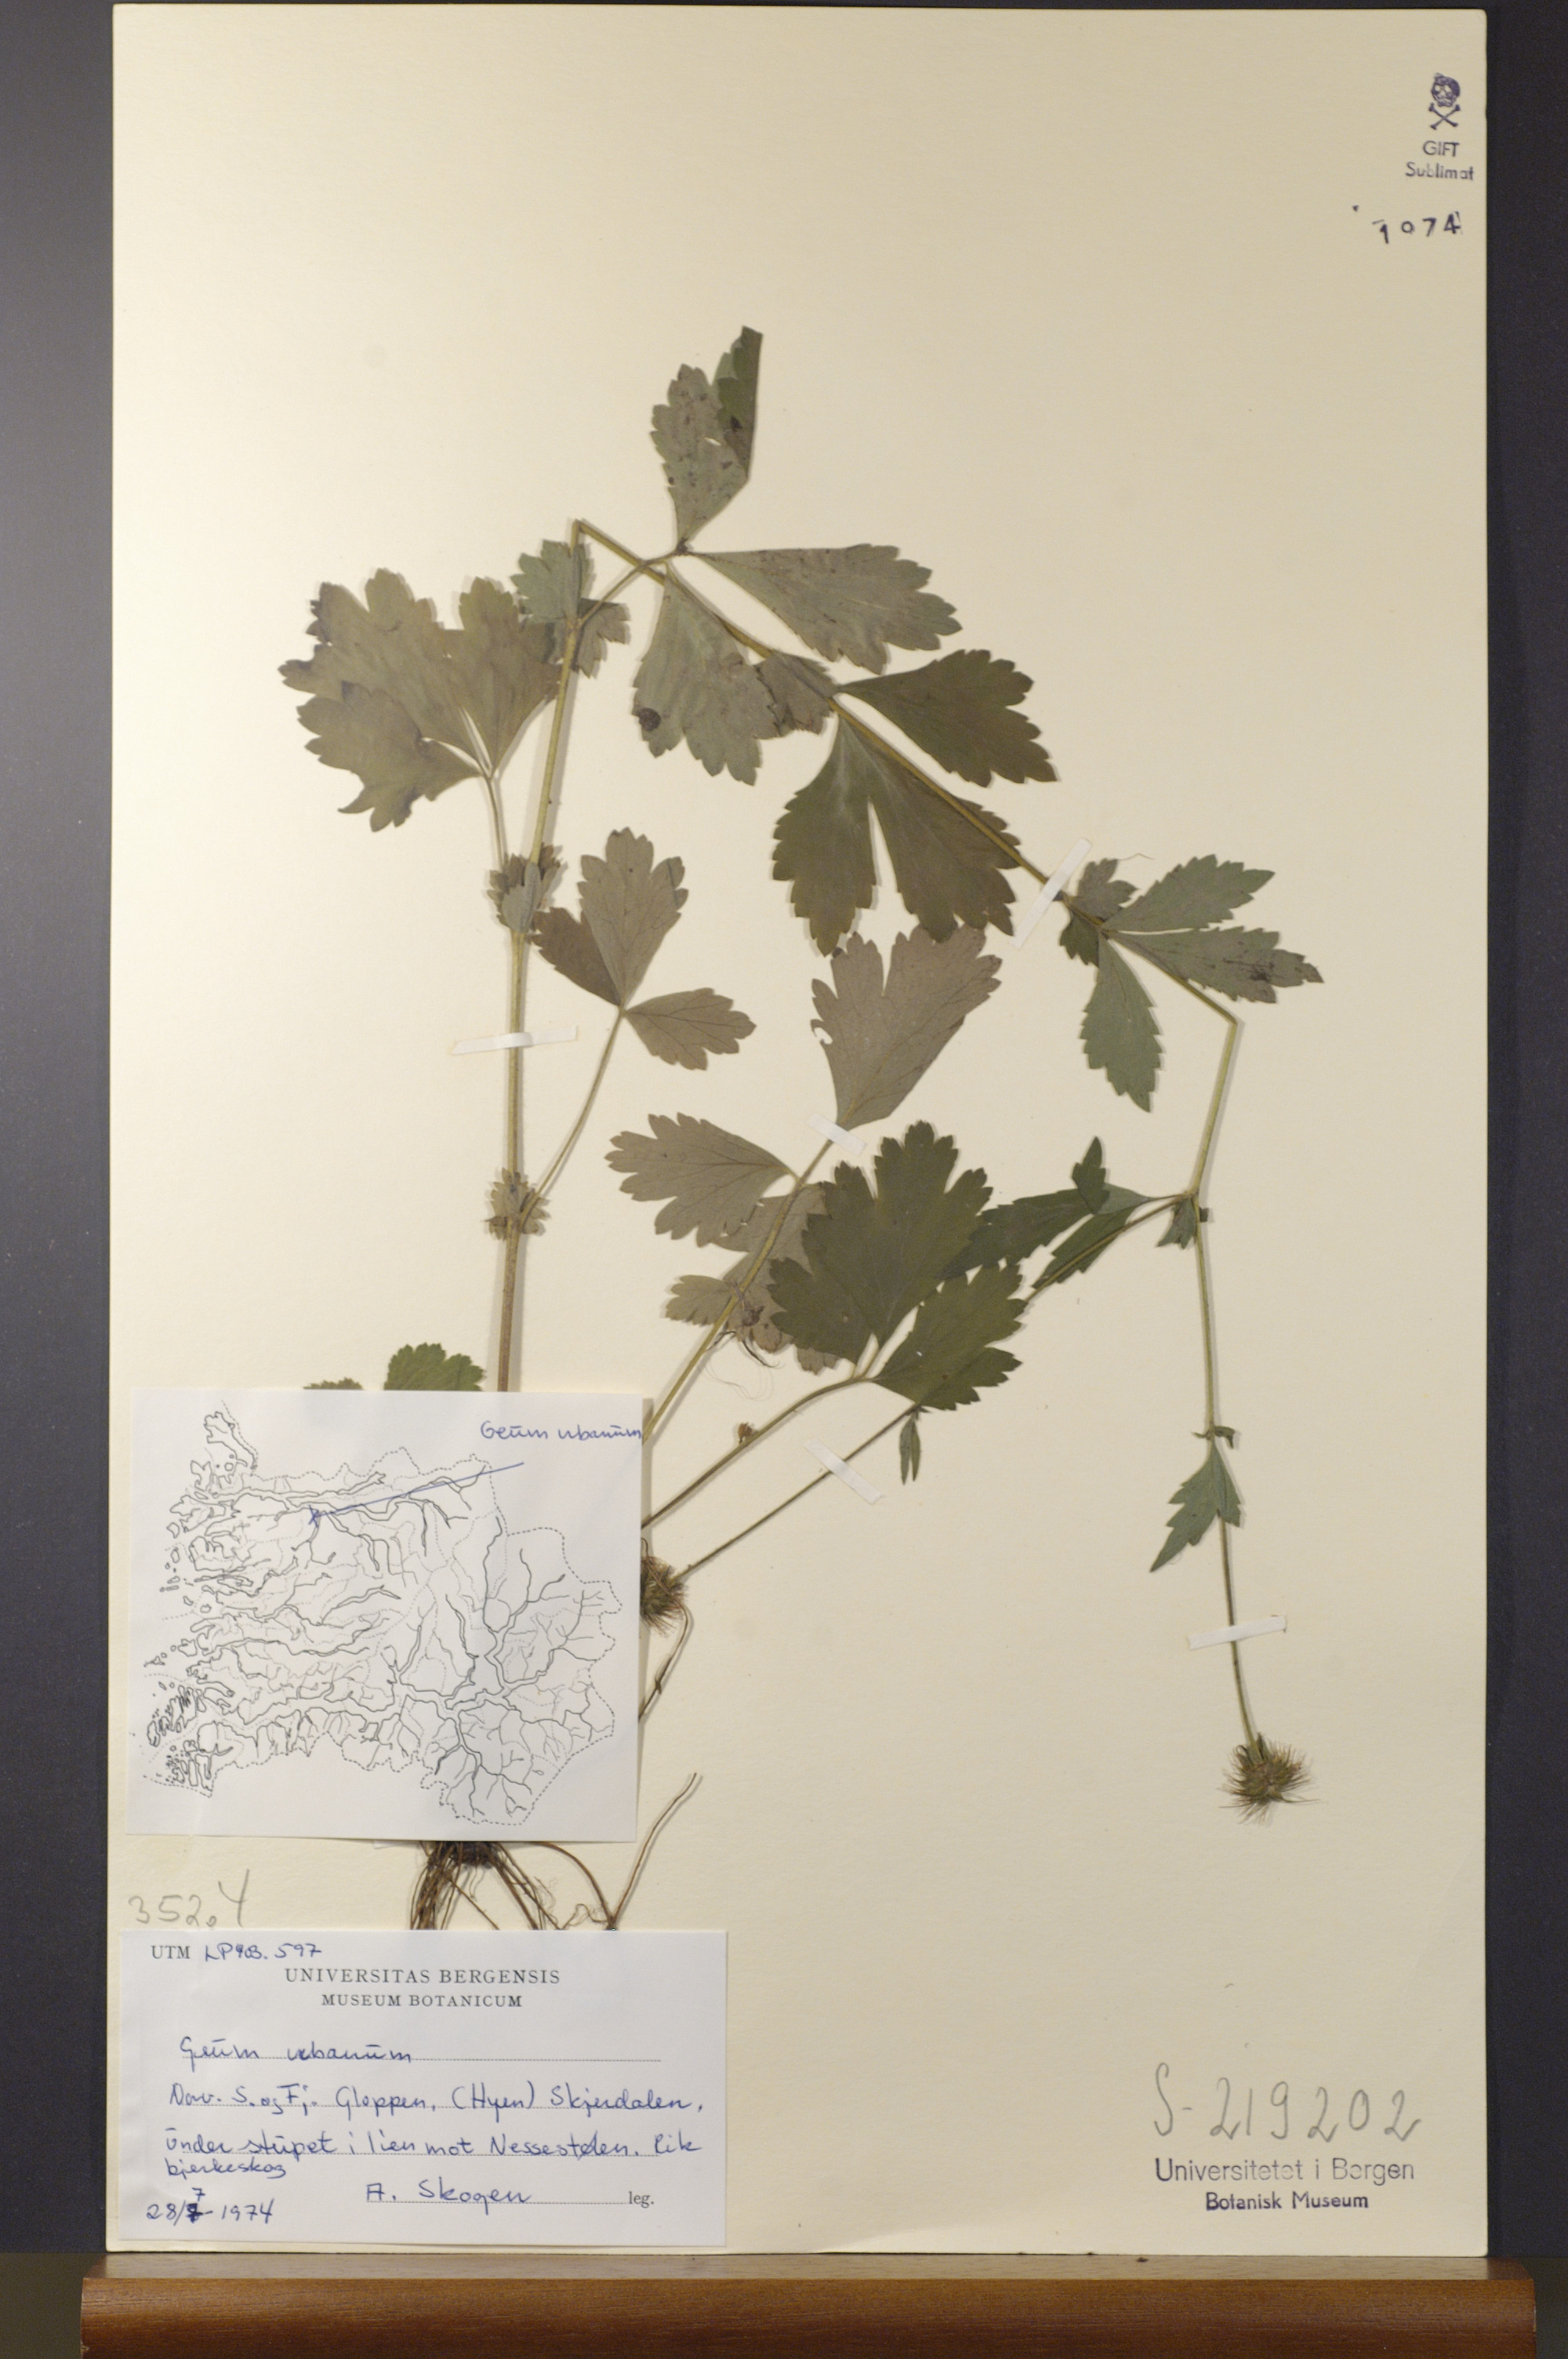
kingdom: Plantae
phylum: Tracheophyta
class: Magnoliopsida
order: Rosales
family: Rosaceae
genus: Geum
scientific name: Geum urbanum
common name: Wood avens
